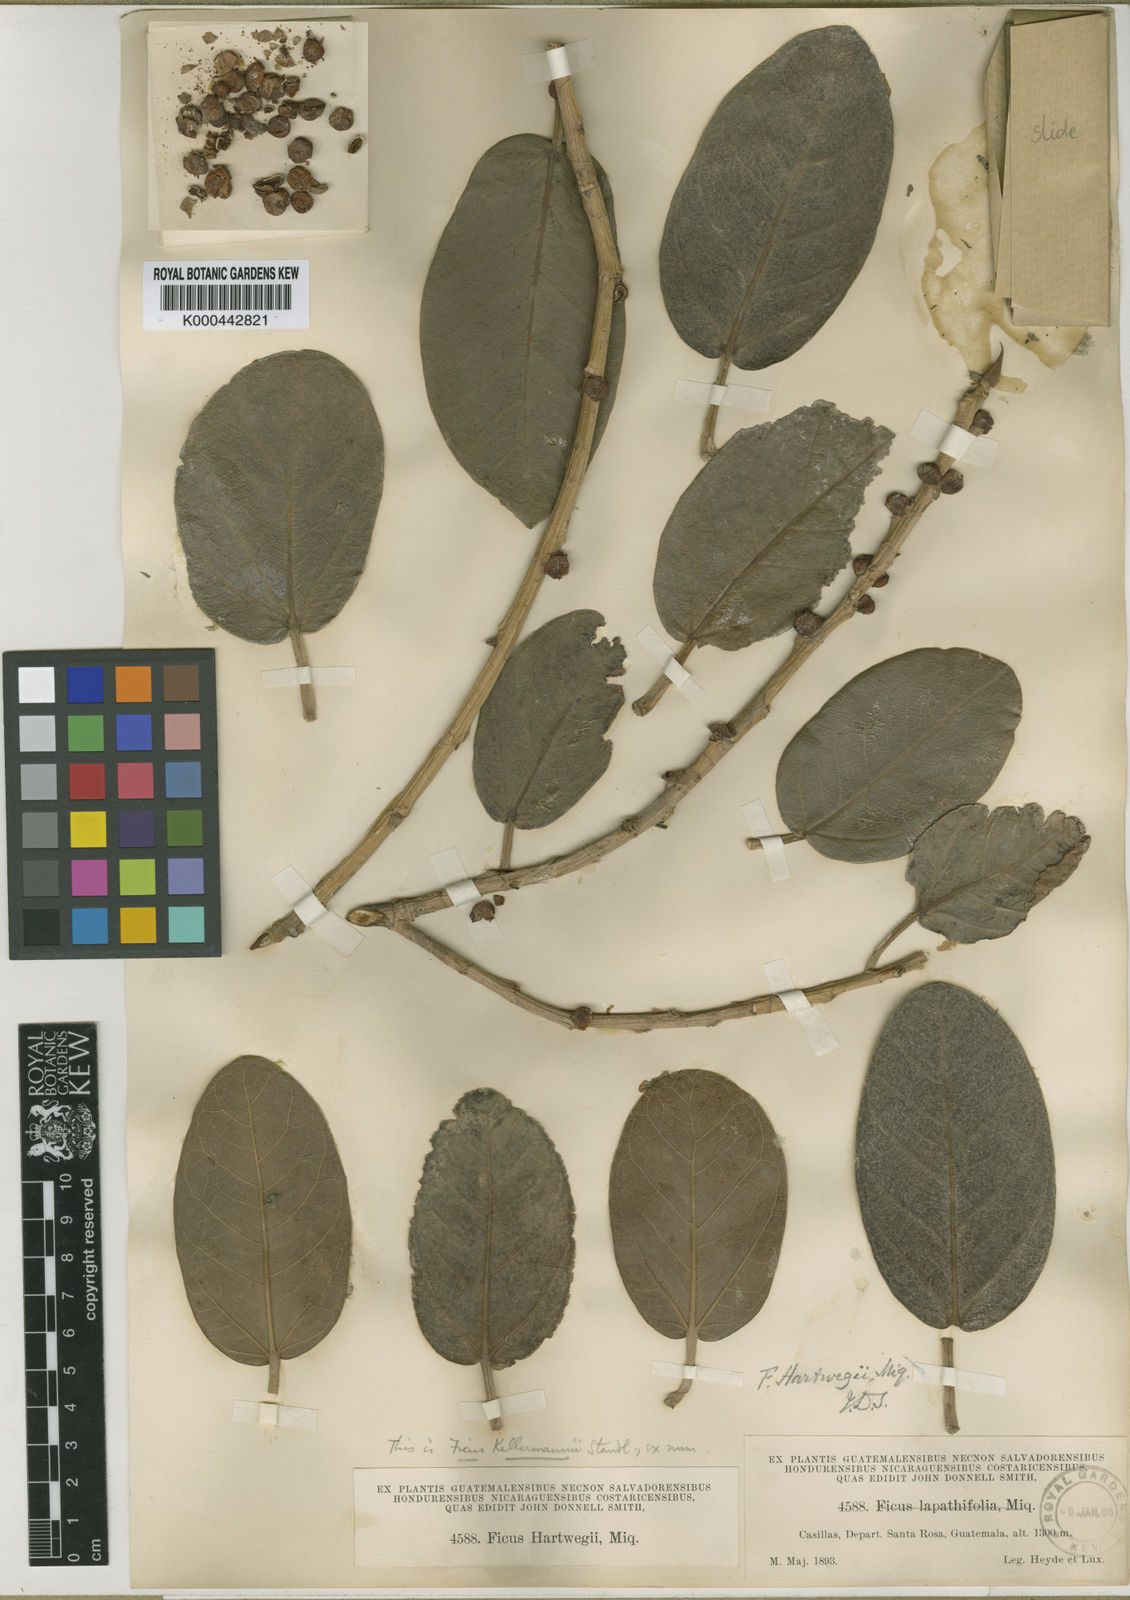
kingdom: Plantae
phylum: Tracheophyta
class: Magnoliopsida
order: Rosales
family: Moraceae
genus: Ficus
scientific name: Ficus costaricana
